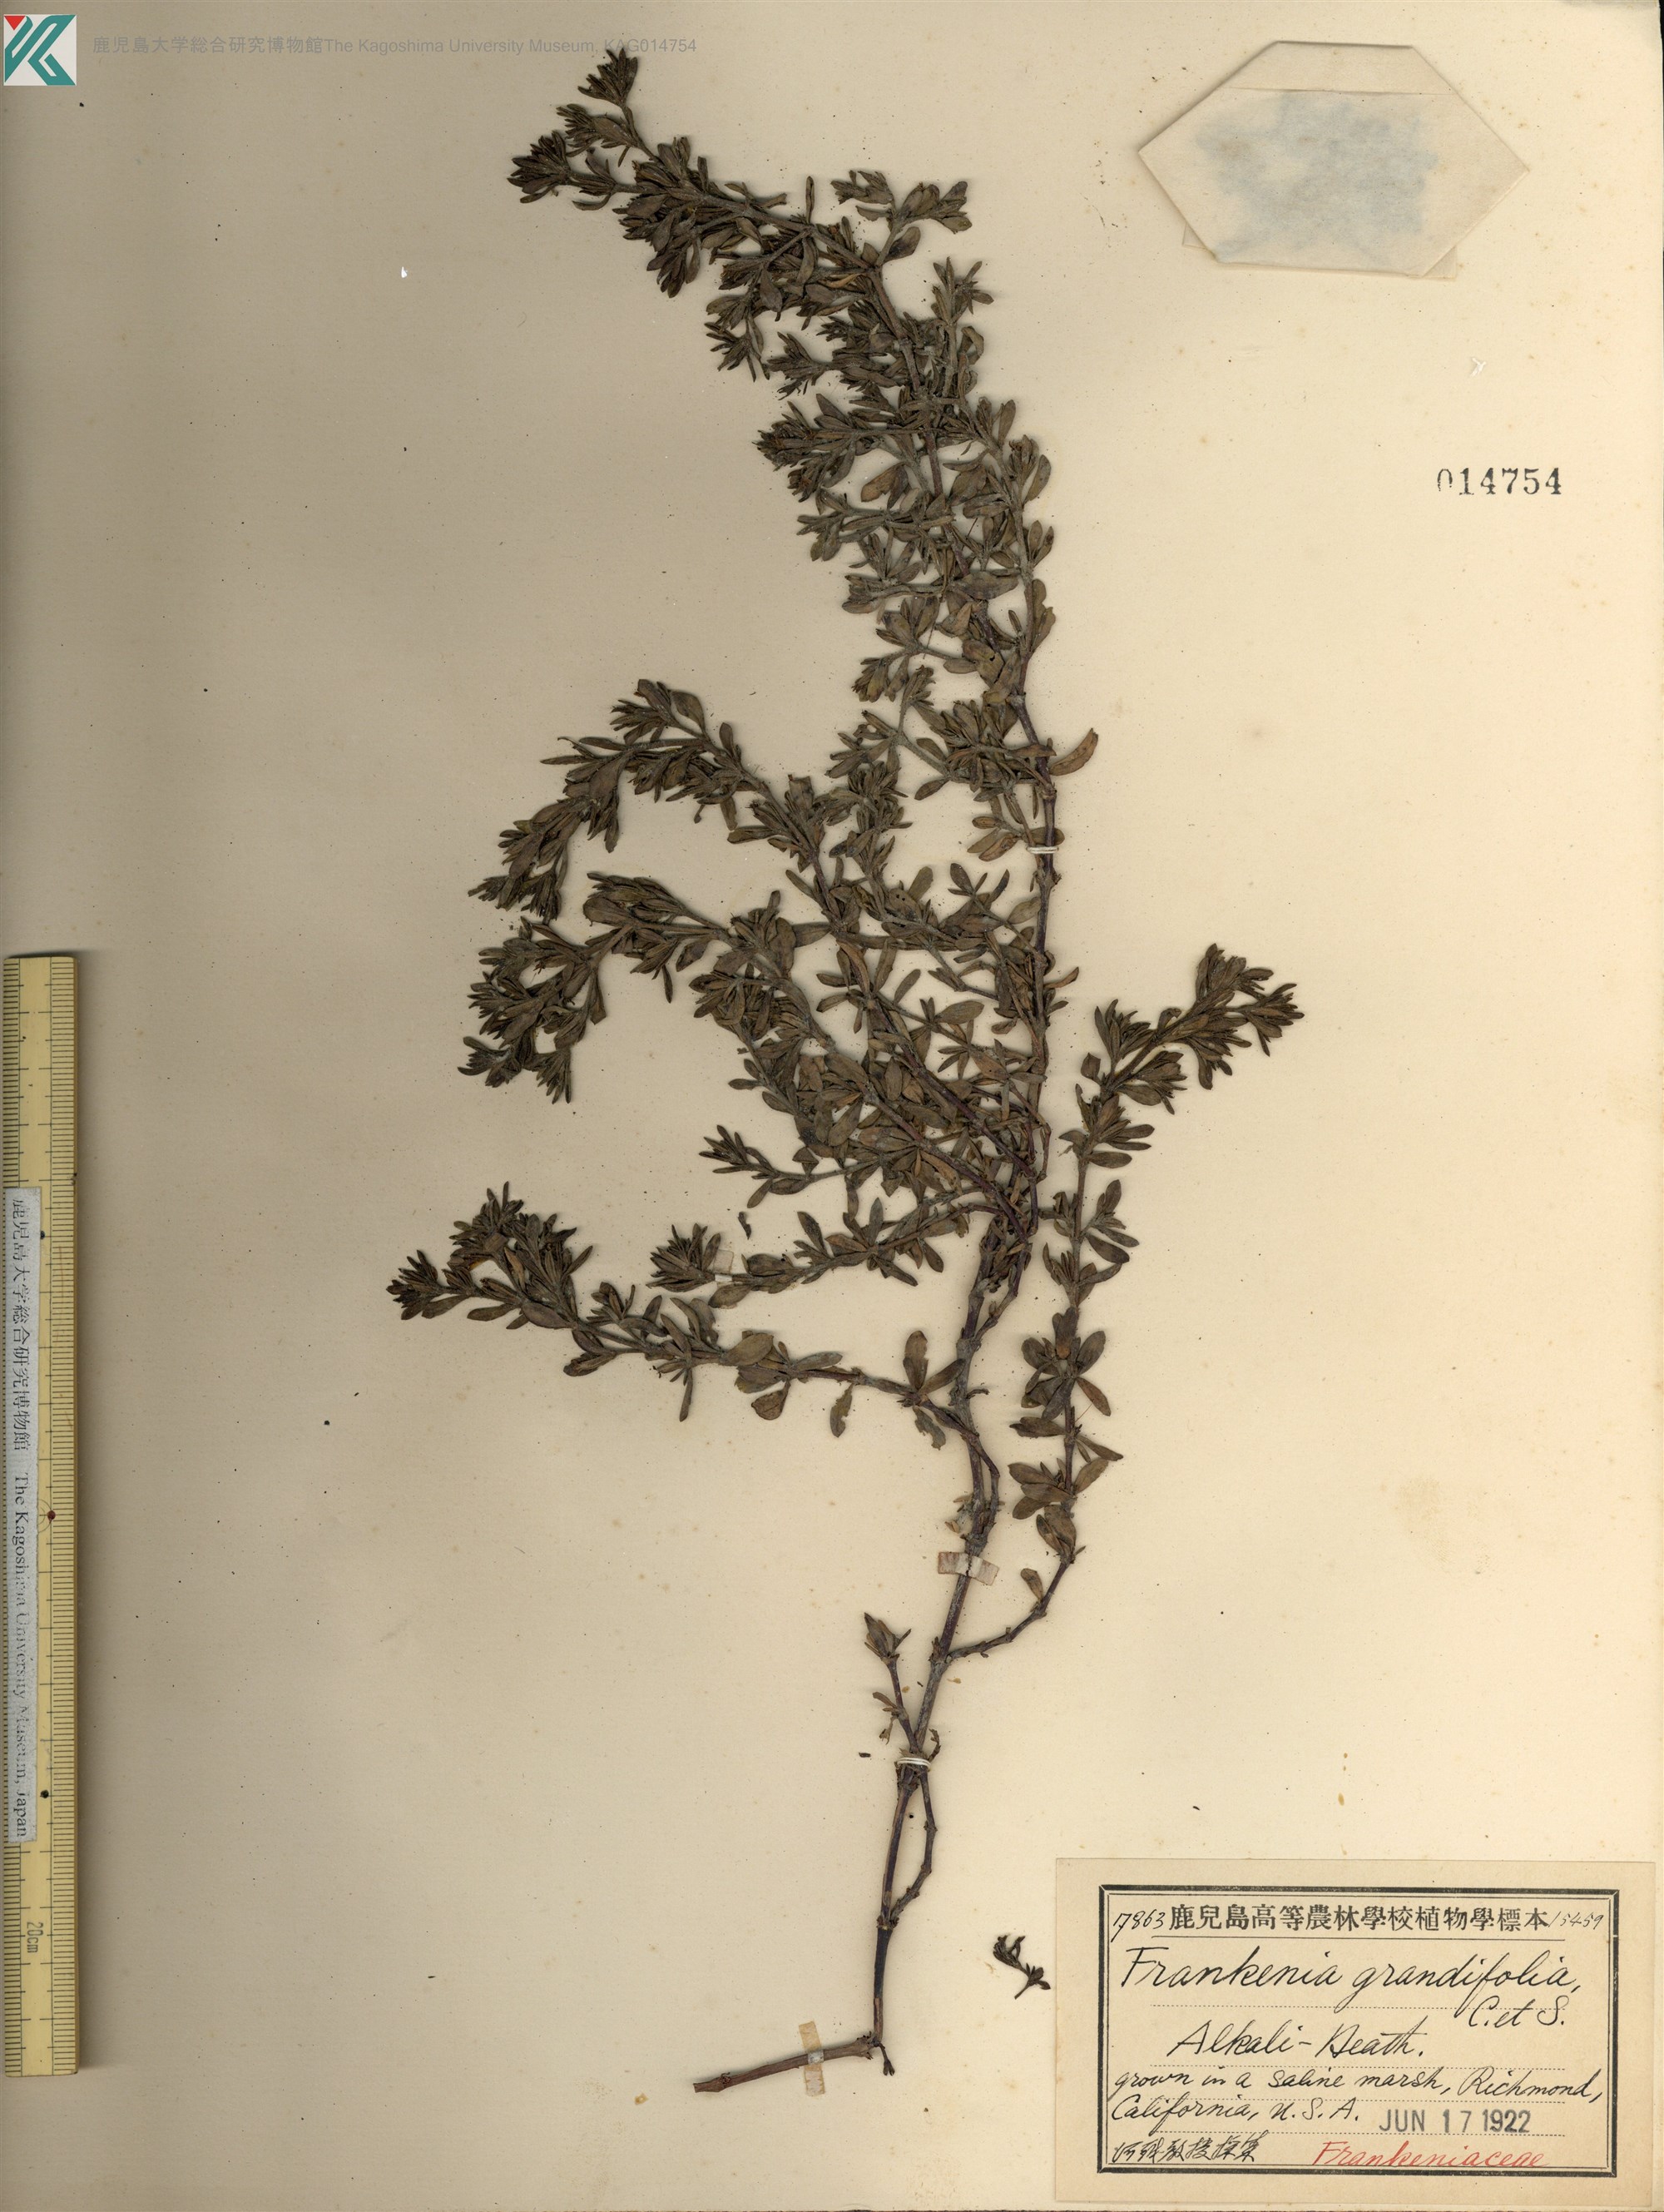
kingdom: Plantae
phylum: Tracheophyta
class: Magnoliopsida
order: Caryophyllales
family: Frankeniaceae
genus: Frankenia
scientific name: Frankenia salina
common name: Alkali seaheath
